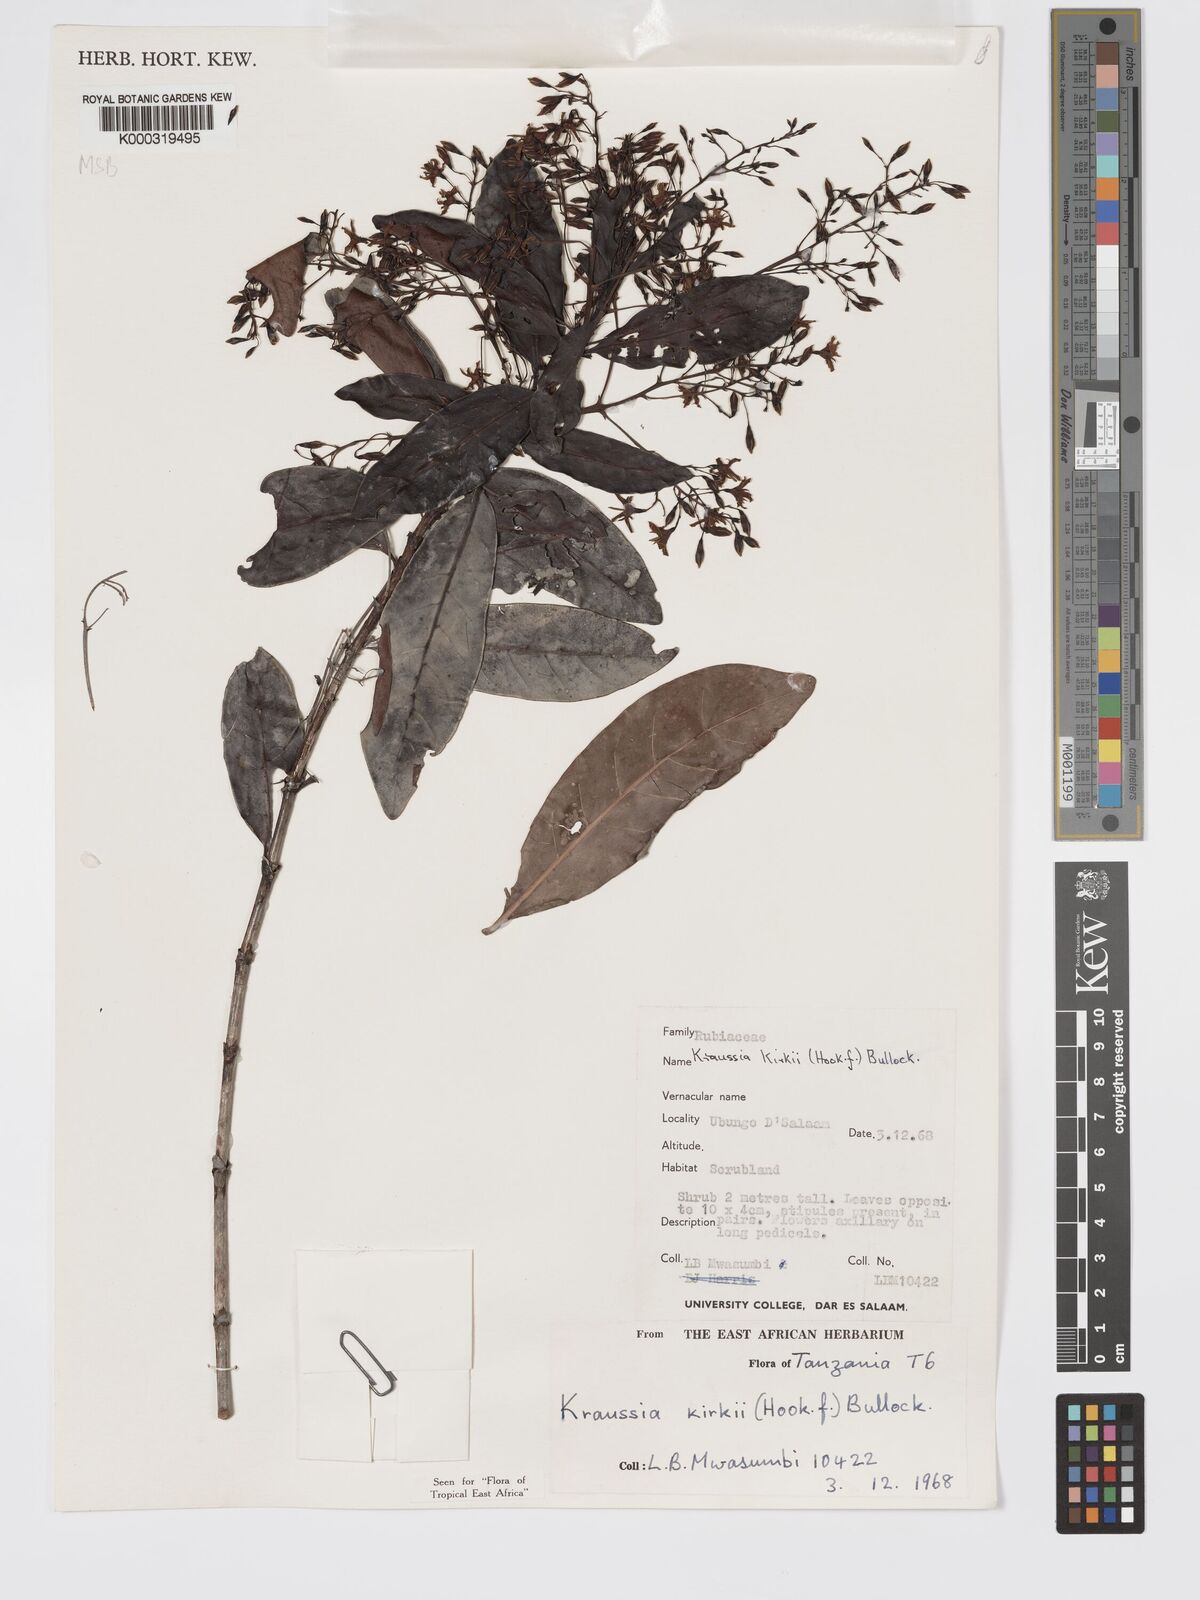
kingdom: Plantae
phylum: Tracheophyta
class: Magnoliopsida
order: Gentianales
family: Rubiaceae
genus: Kraussia
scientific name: Kraussia kirkii
